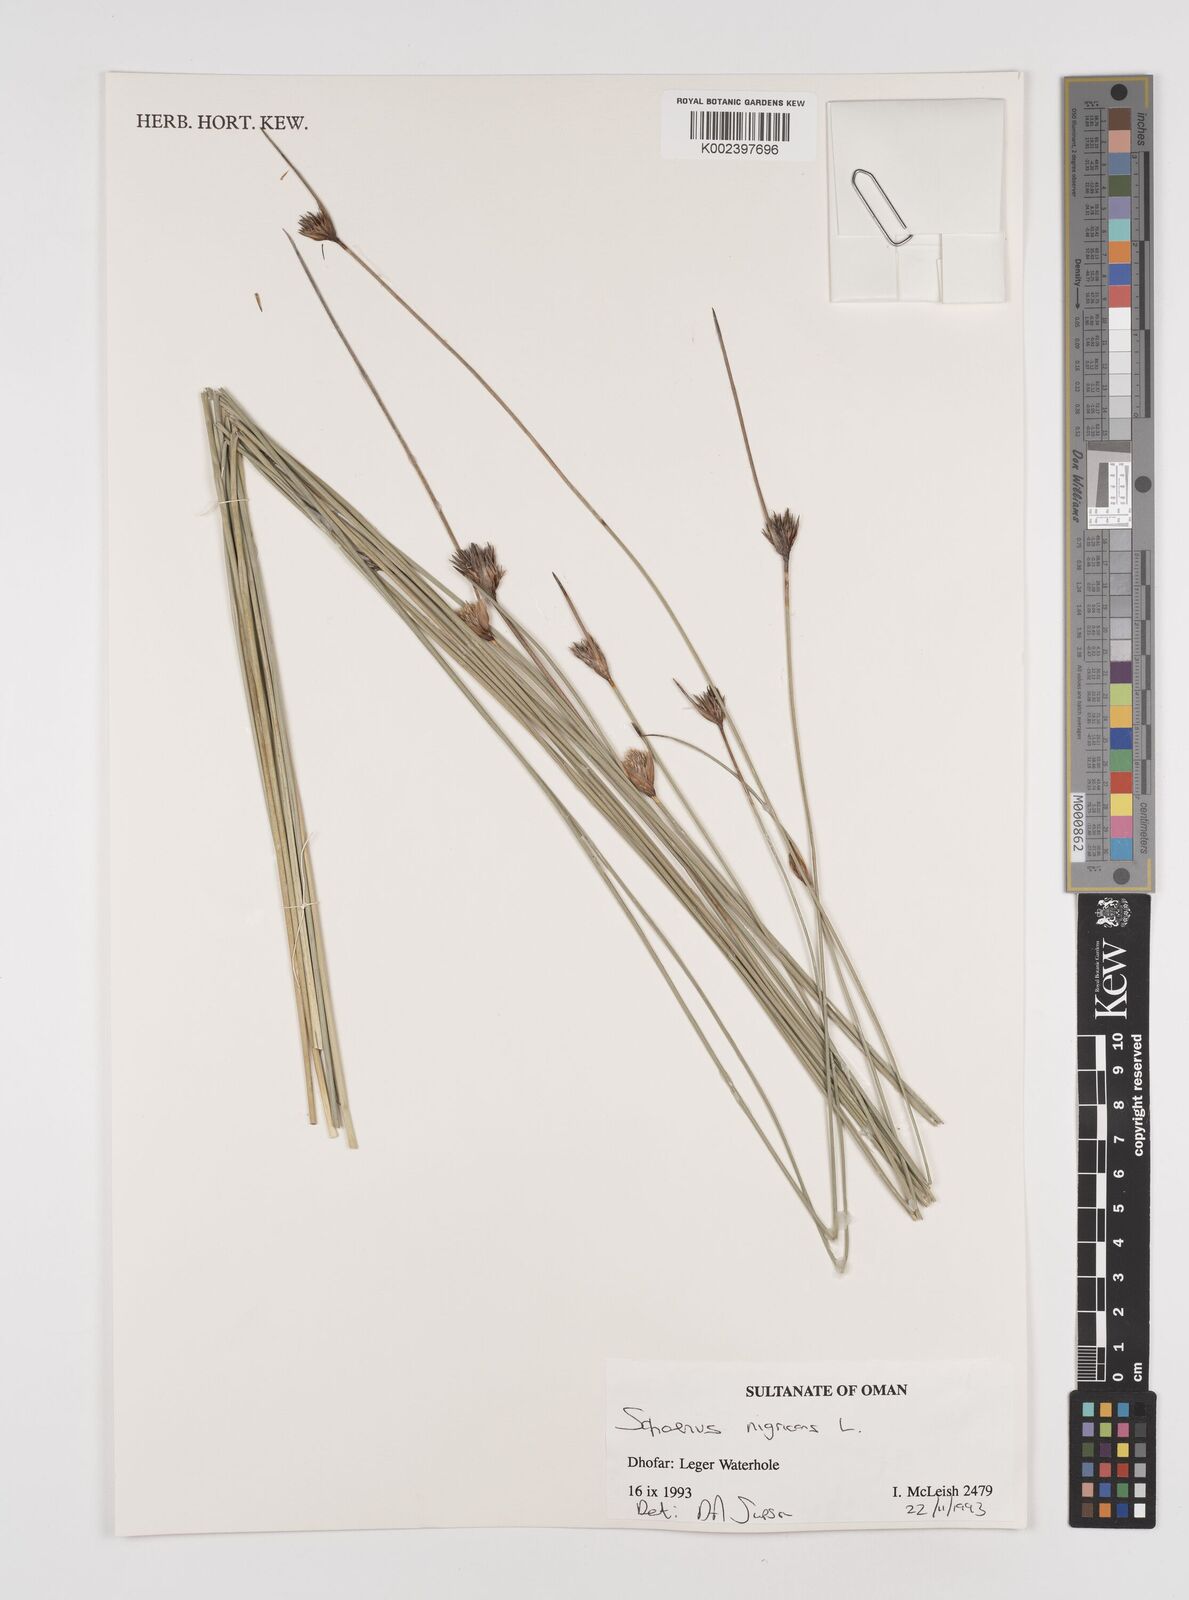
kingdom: Plantae
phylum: Tracheophyta
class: Liliopsida
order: Poales
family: Cyperaceae
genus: Schoenus
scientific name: Schoenus nigricans
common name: Black bog-rush
